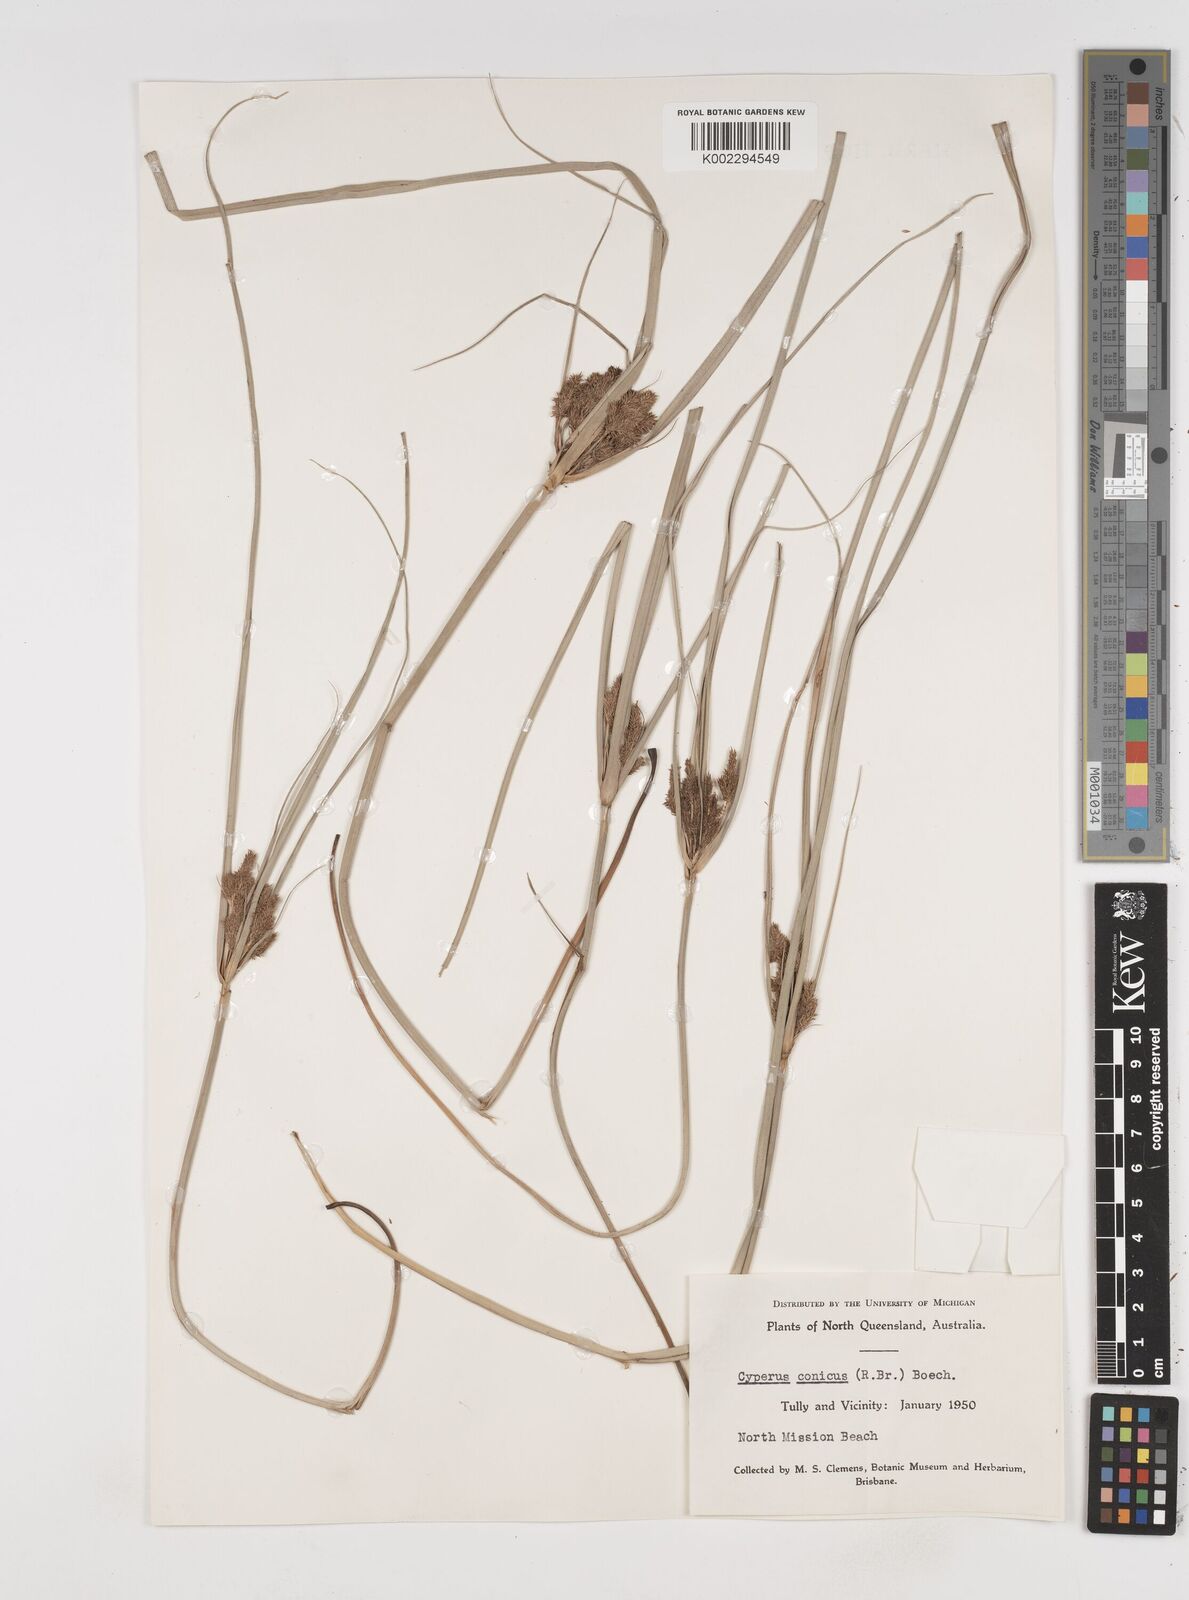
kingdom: Plantae
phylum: Tracheophyta
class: Liliopsida
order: Poales
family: Cyperaceae
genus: Cyperus
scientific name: Cyperus conicus
